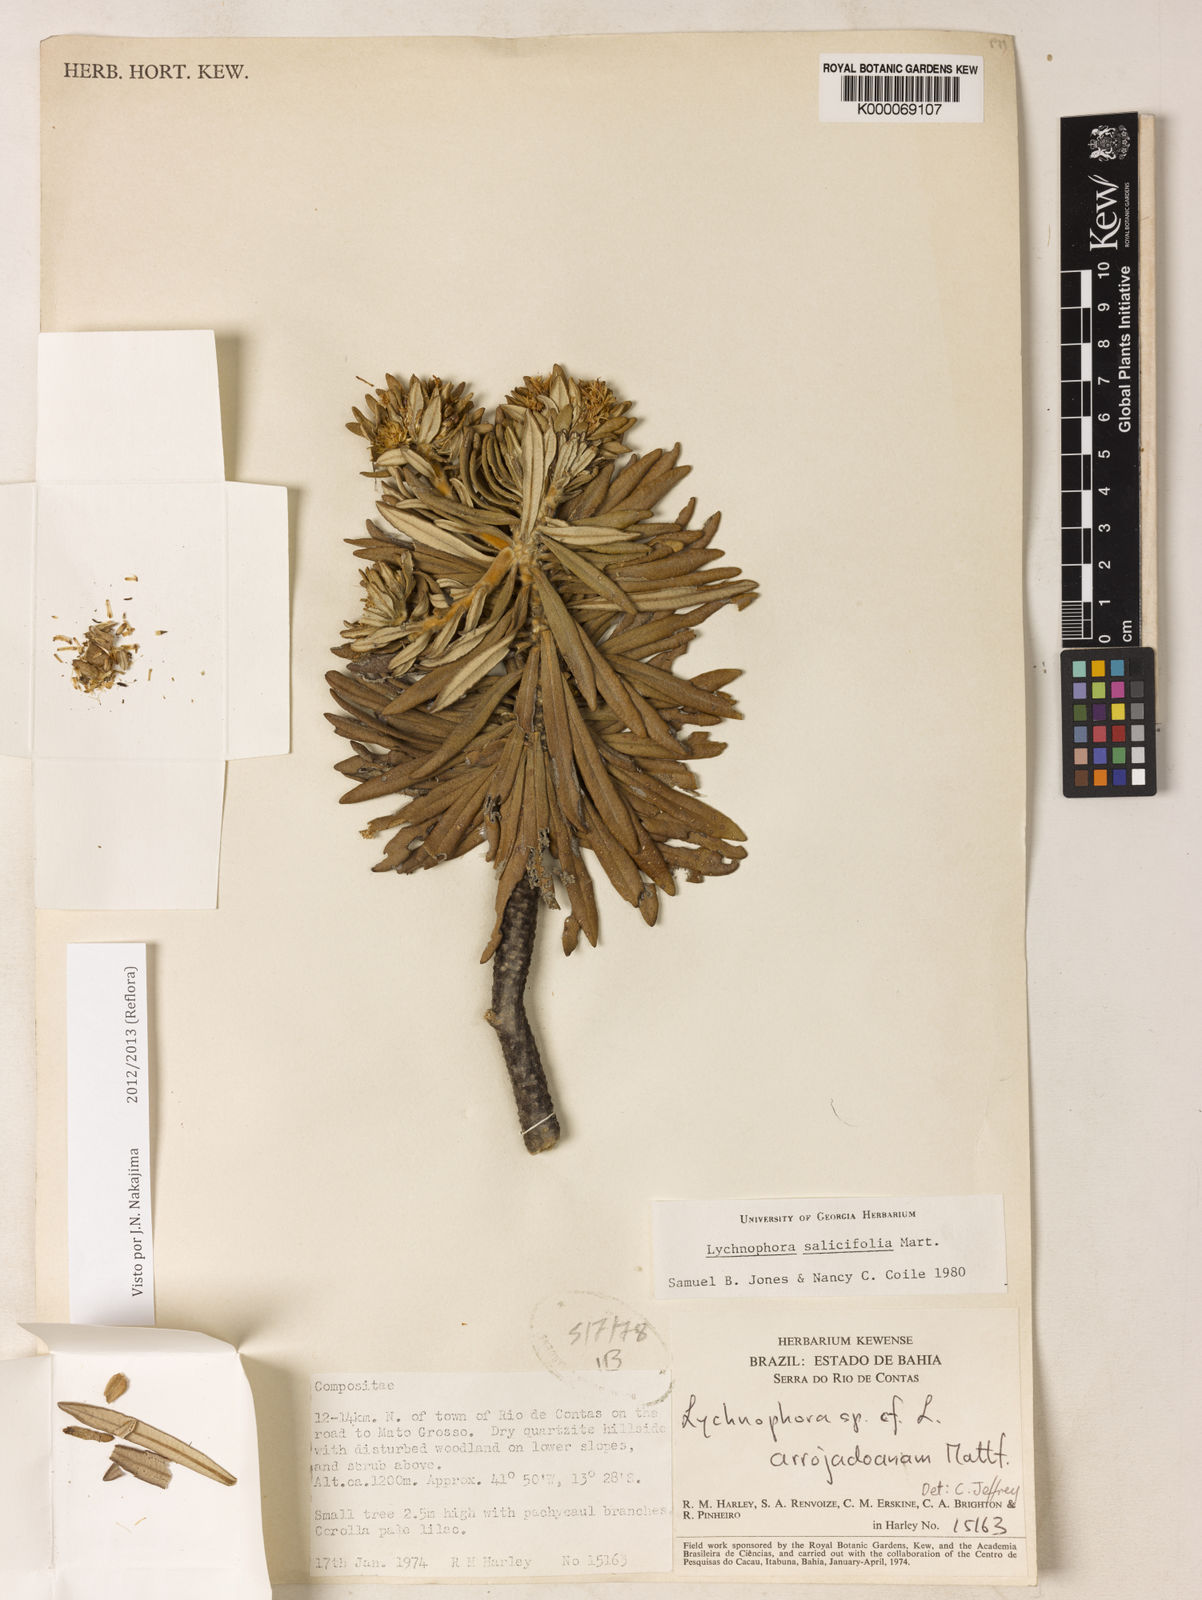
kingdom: Plantae
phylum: Tracheophyta
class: Magnoliopsida
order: Asterales
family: Asteraceae
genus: Lychnophora
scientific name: Lychnophora salicifolia
